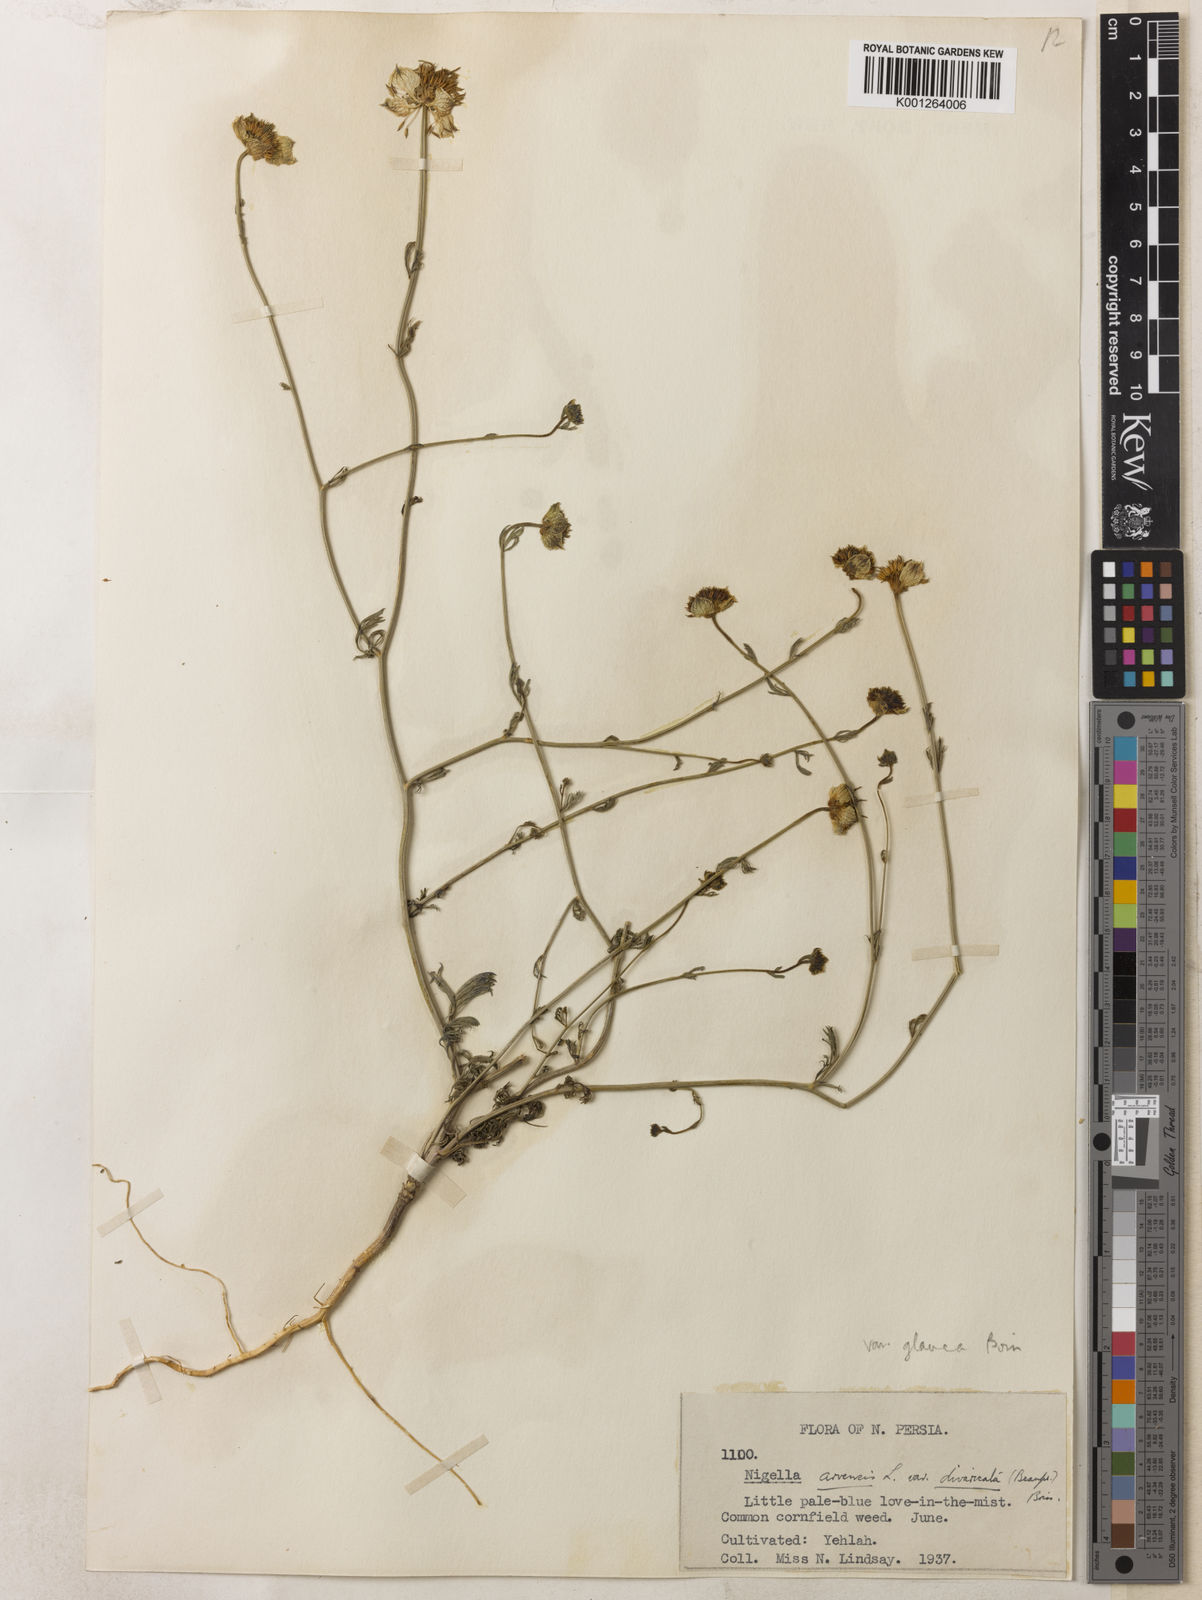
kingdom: Plantae
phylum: Tracheophyta
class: Magnoliopsida
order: Ranunculales
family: Ranunculaceae
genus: Nigella
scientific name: Nigella arvensis
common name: Wild fennel-flower
